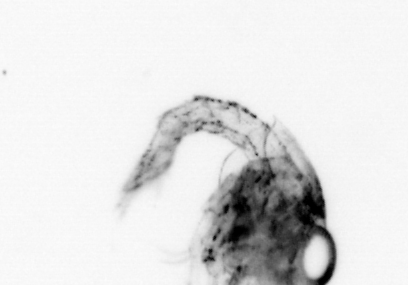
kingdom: Animalia
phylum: Arthropoda
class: Malacostraca
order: Decapoda
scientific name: Decapoda
